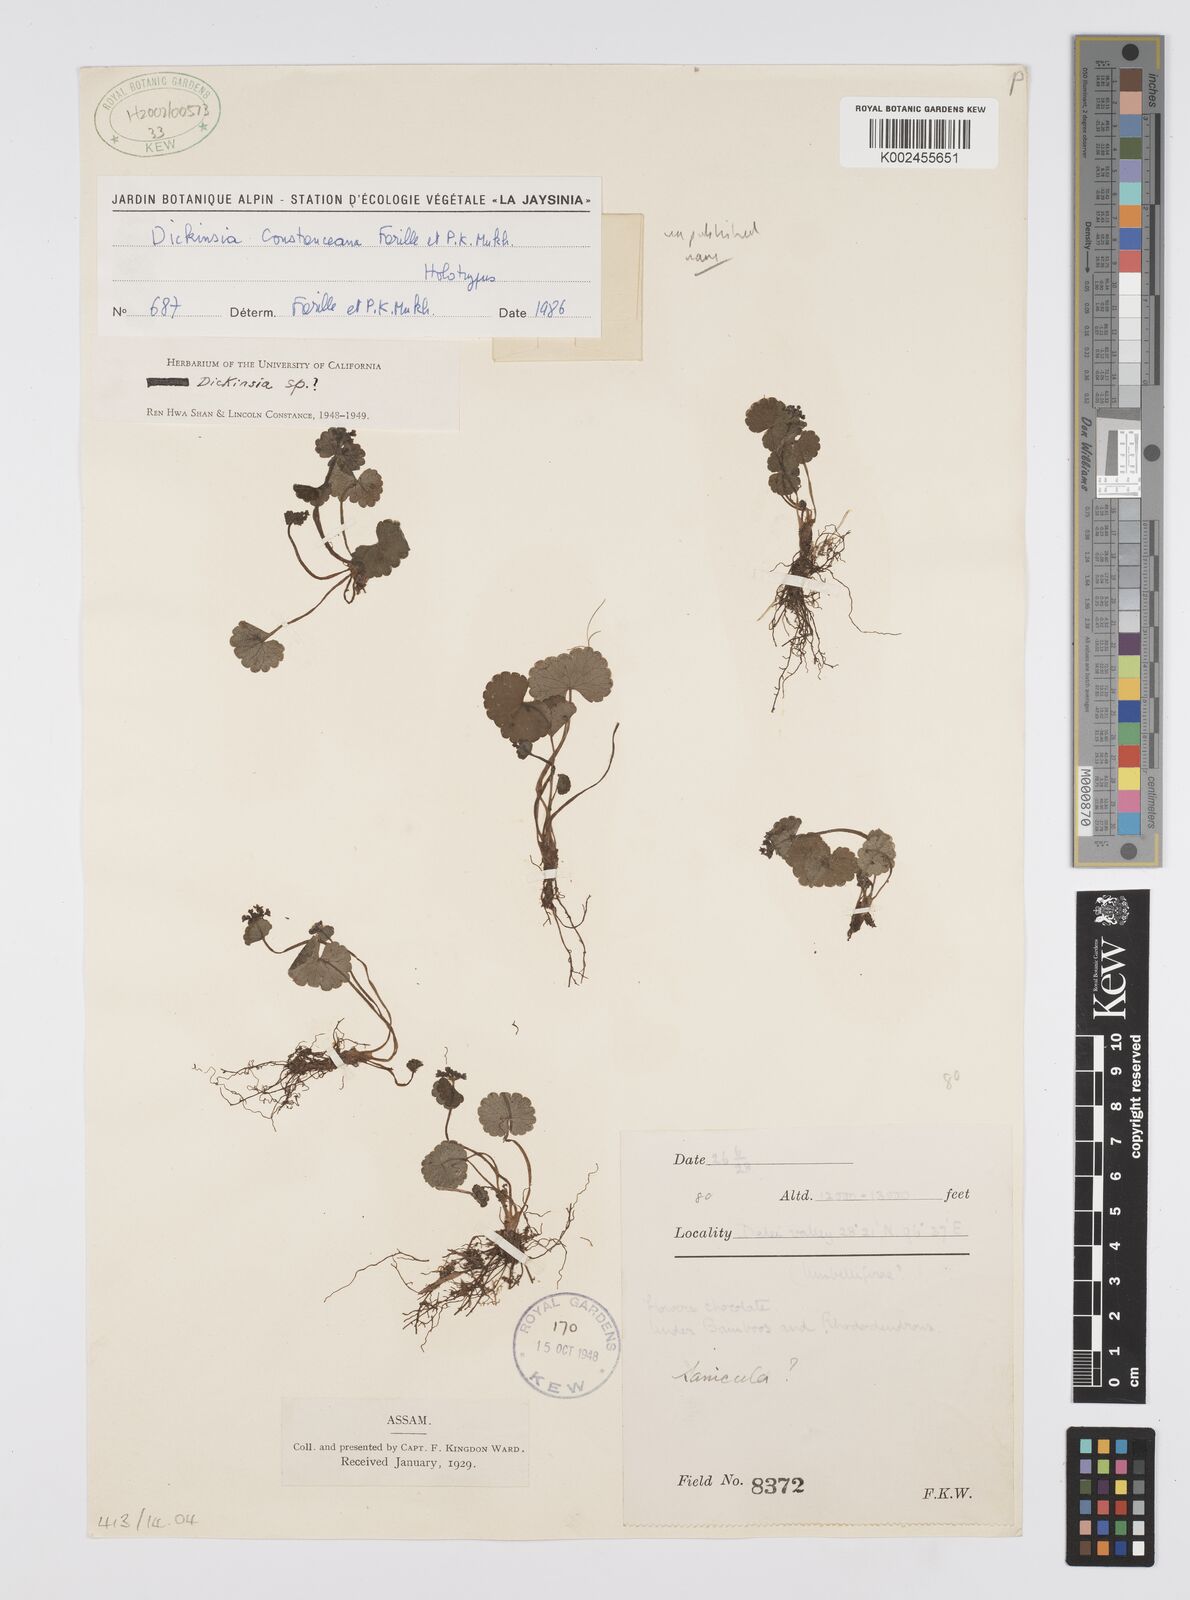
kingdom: Plantae
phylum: Tracheophyta
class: Magnoliopsida
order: Apiales
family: Apiaceae
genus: Dickinsia
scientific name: Dickinsia
